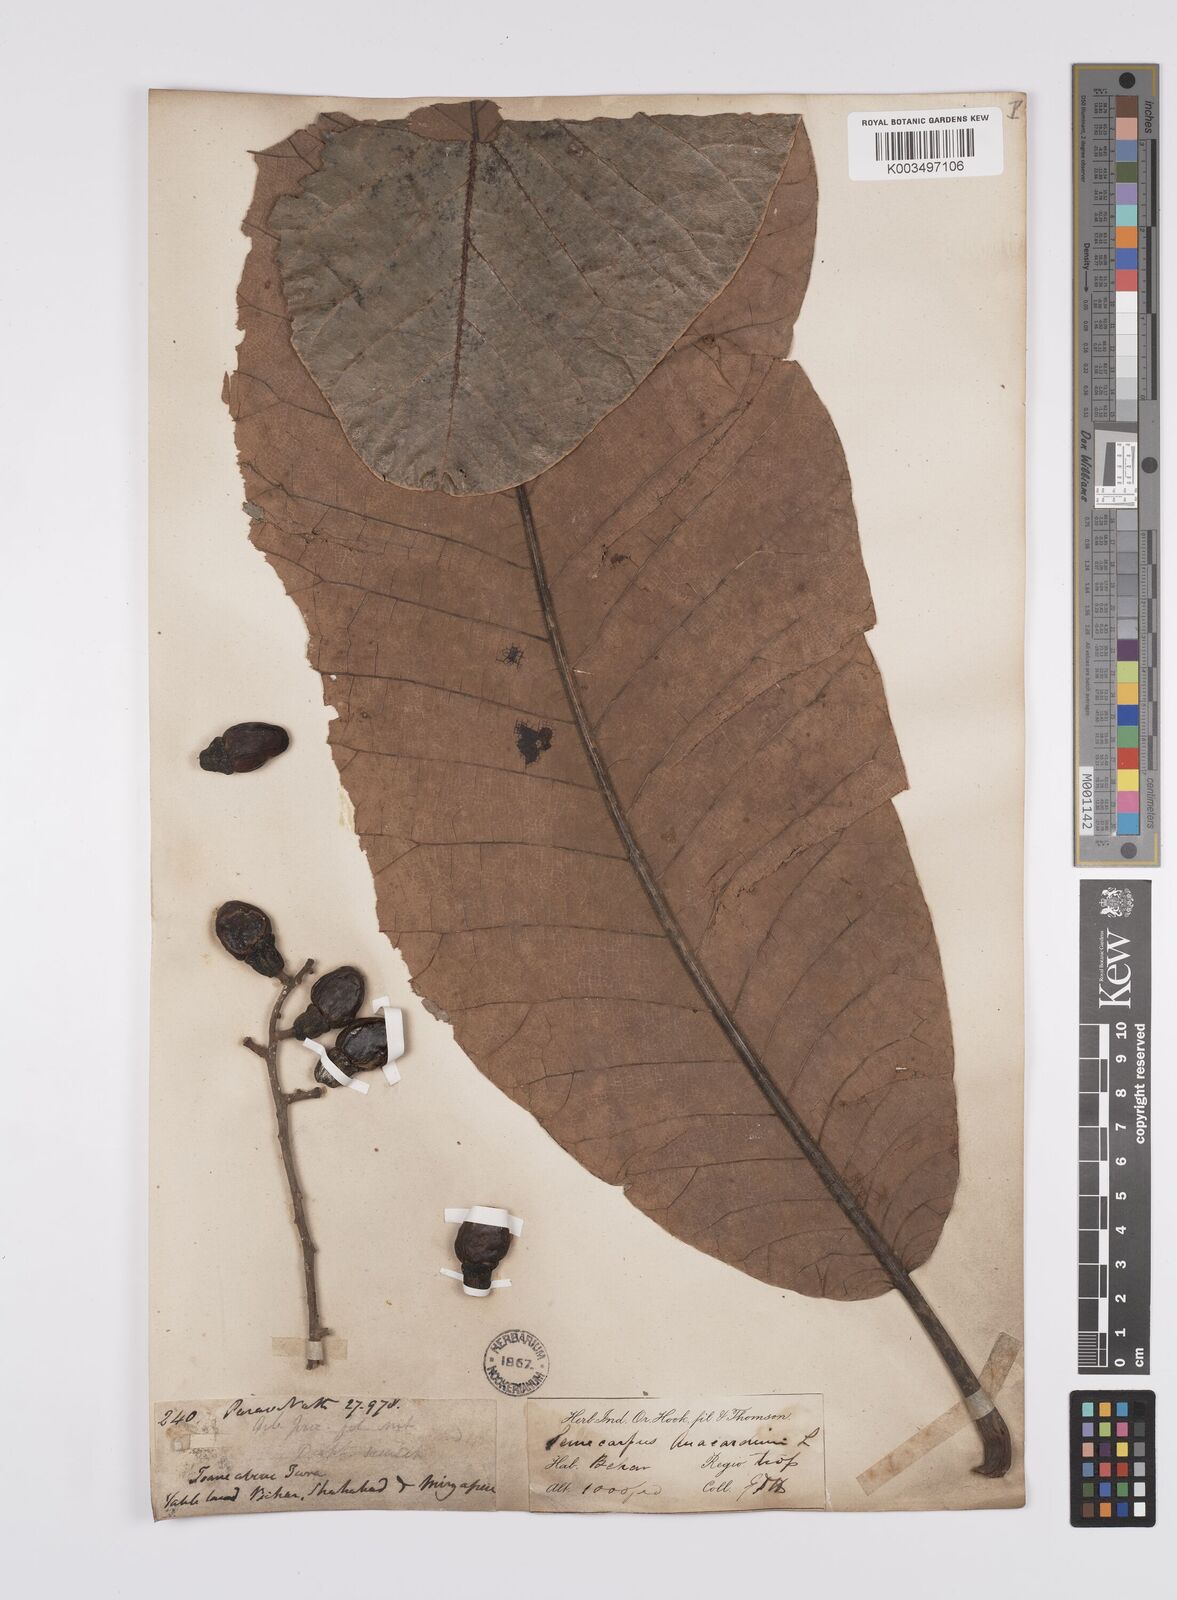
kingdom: Plantae
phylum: Tracheophyta
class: Magnoliopsida
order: Sapindales
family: Anacardiaceae
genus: Semecarpus
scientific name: Semecarpus anacardium
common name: Marking nut-tree
